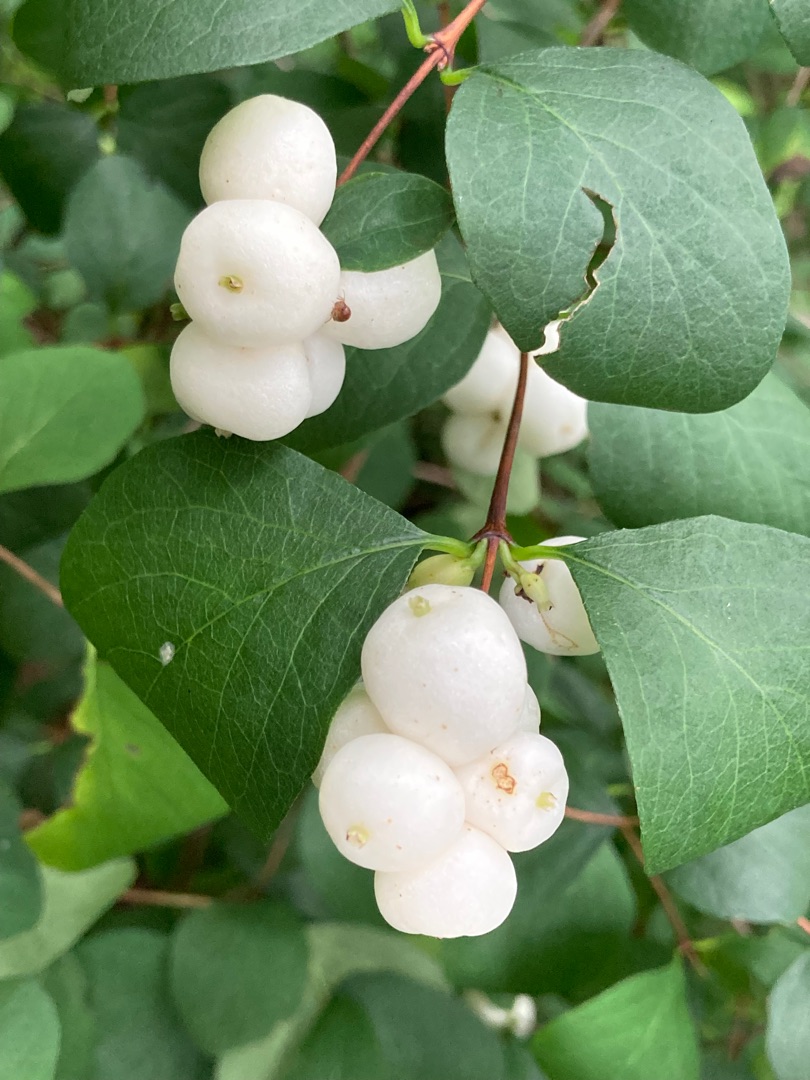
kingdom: Plantae
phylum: Tracheophyta
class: Magnoliopsida
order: Dipsacales
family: Caprifoliaceae
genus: Symphoricarpos
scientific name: Symphoricarpos albus
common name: Almindelig snebær
